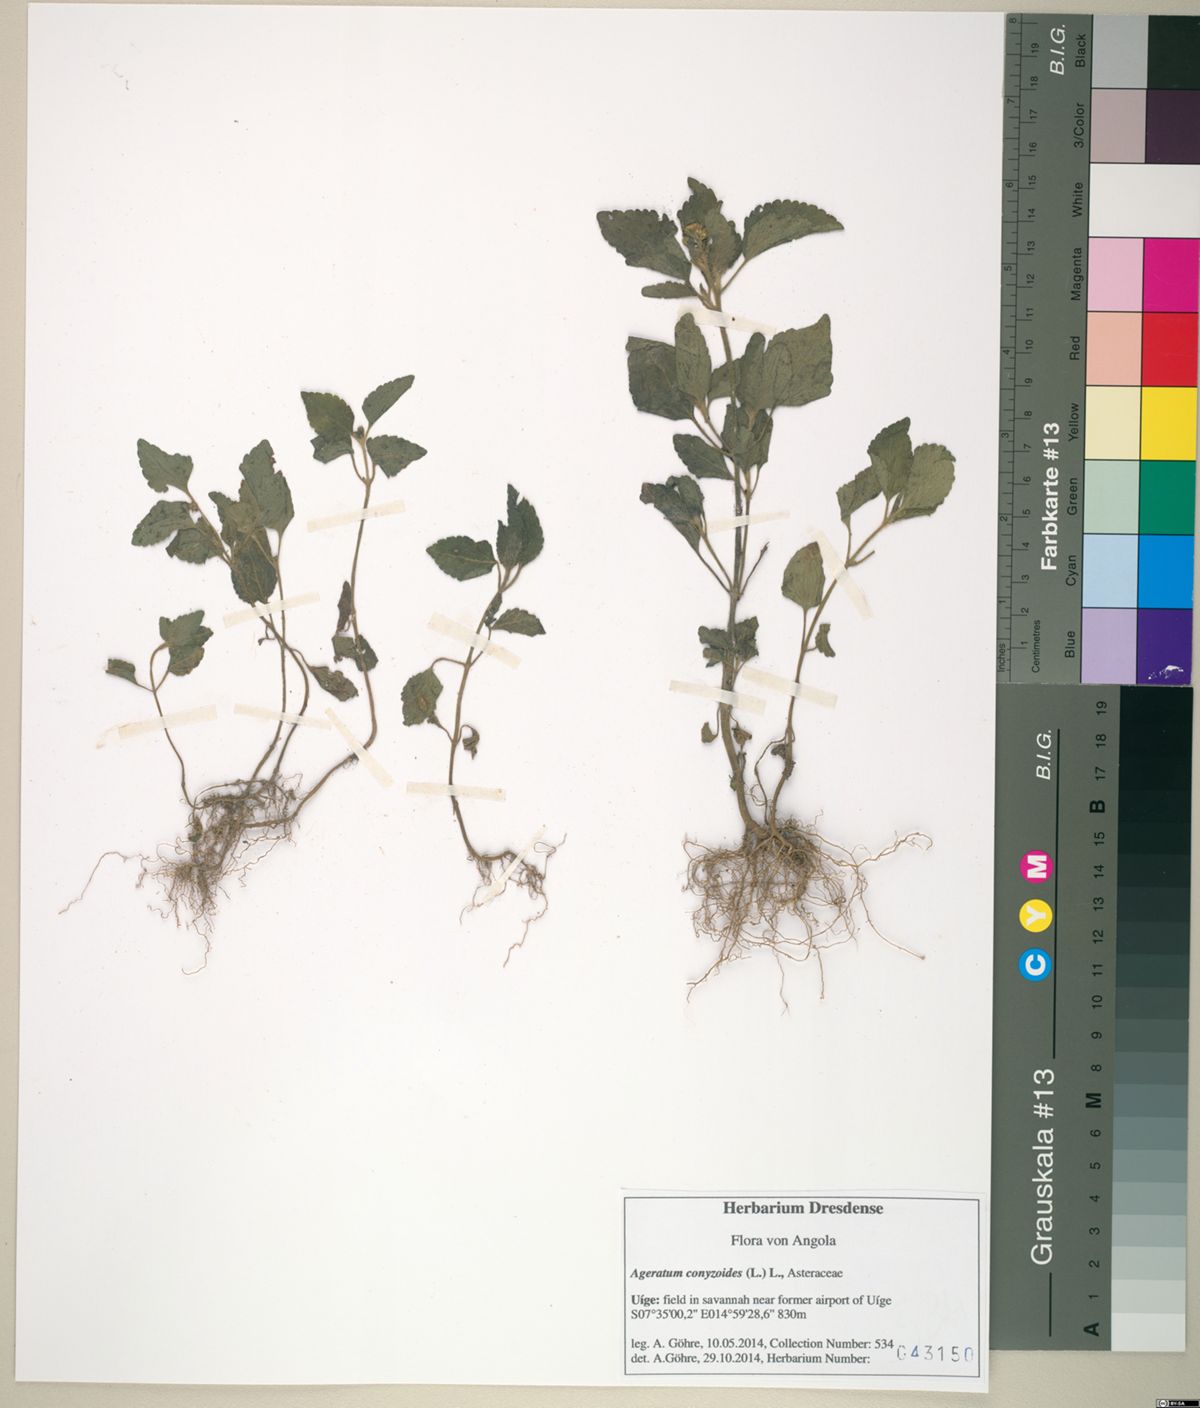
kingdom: Plantae
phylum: Tracheophyta
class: Magnoliopsida
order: Asterales
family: Asteraceae
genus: Ageratum
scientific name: Ageratum conyzoides
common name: Tropical whiteweed
